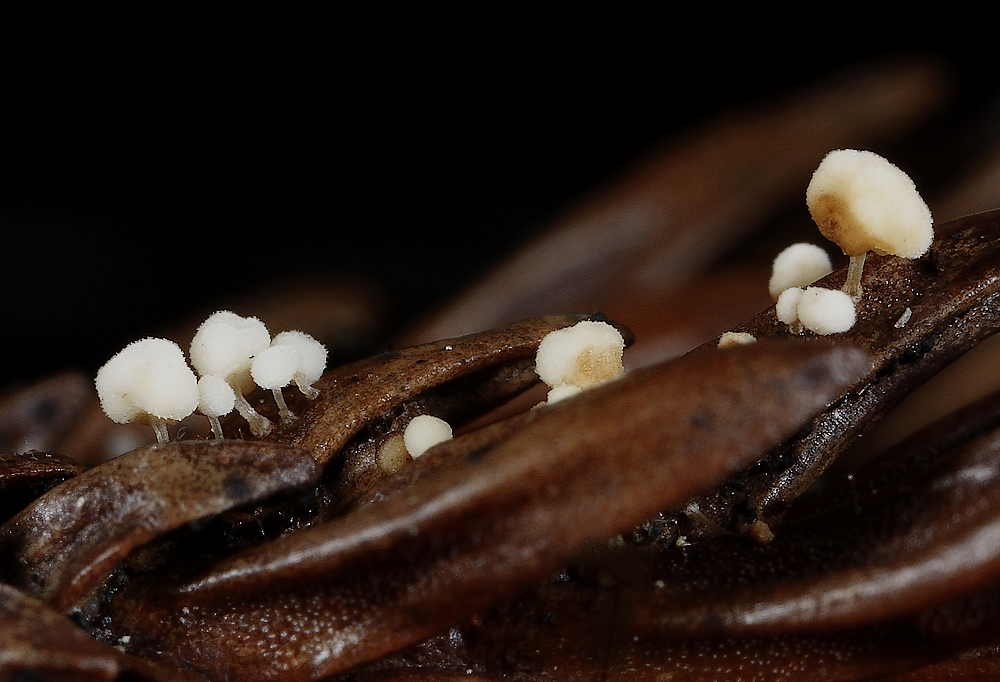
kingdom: Fungi
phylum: Basidiomycota
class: Agaricomycetes
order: Agaricales
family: Physalacriaceae
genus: Physalacria
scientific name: Physalacria cryptomeriae
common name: japangran-boldkølle
